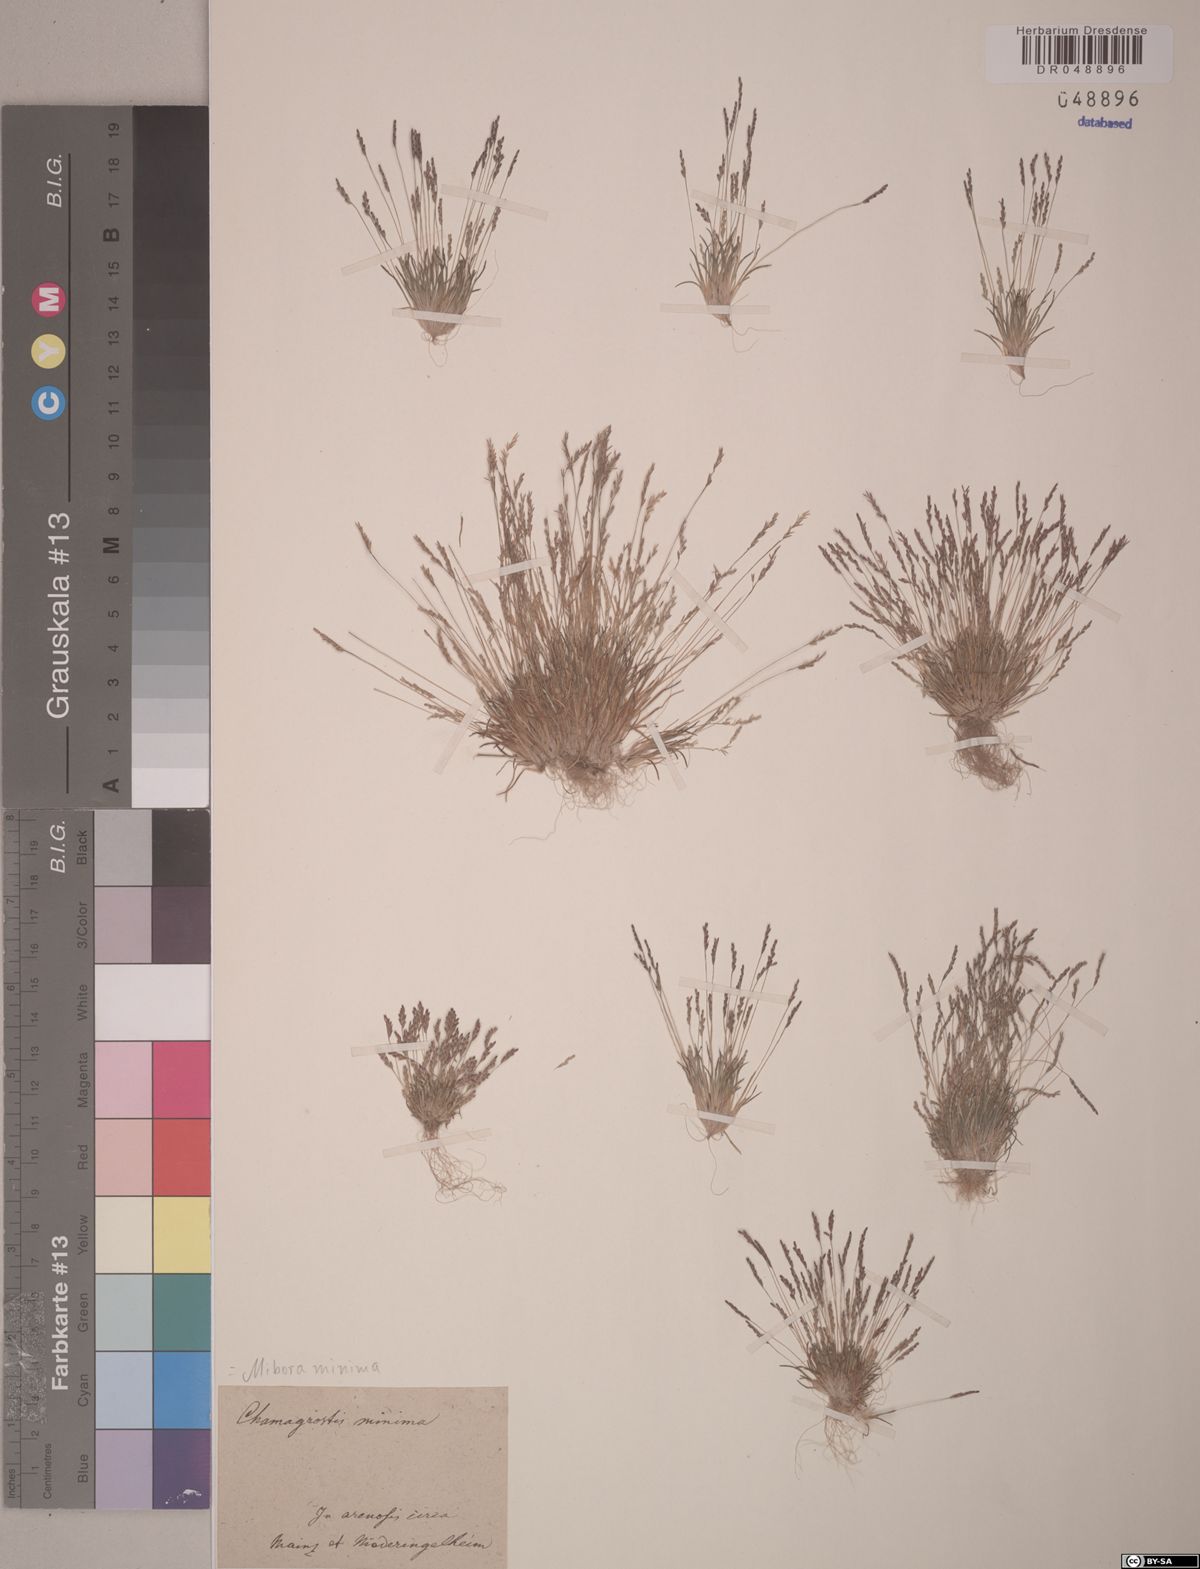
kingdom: Plantae
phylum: Tracheophyta
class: Liliopsida
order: Poales
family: Poaceae
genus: Mibora
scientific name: Mibora minima
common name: Early sand-grass
